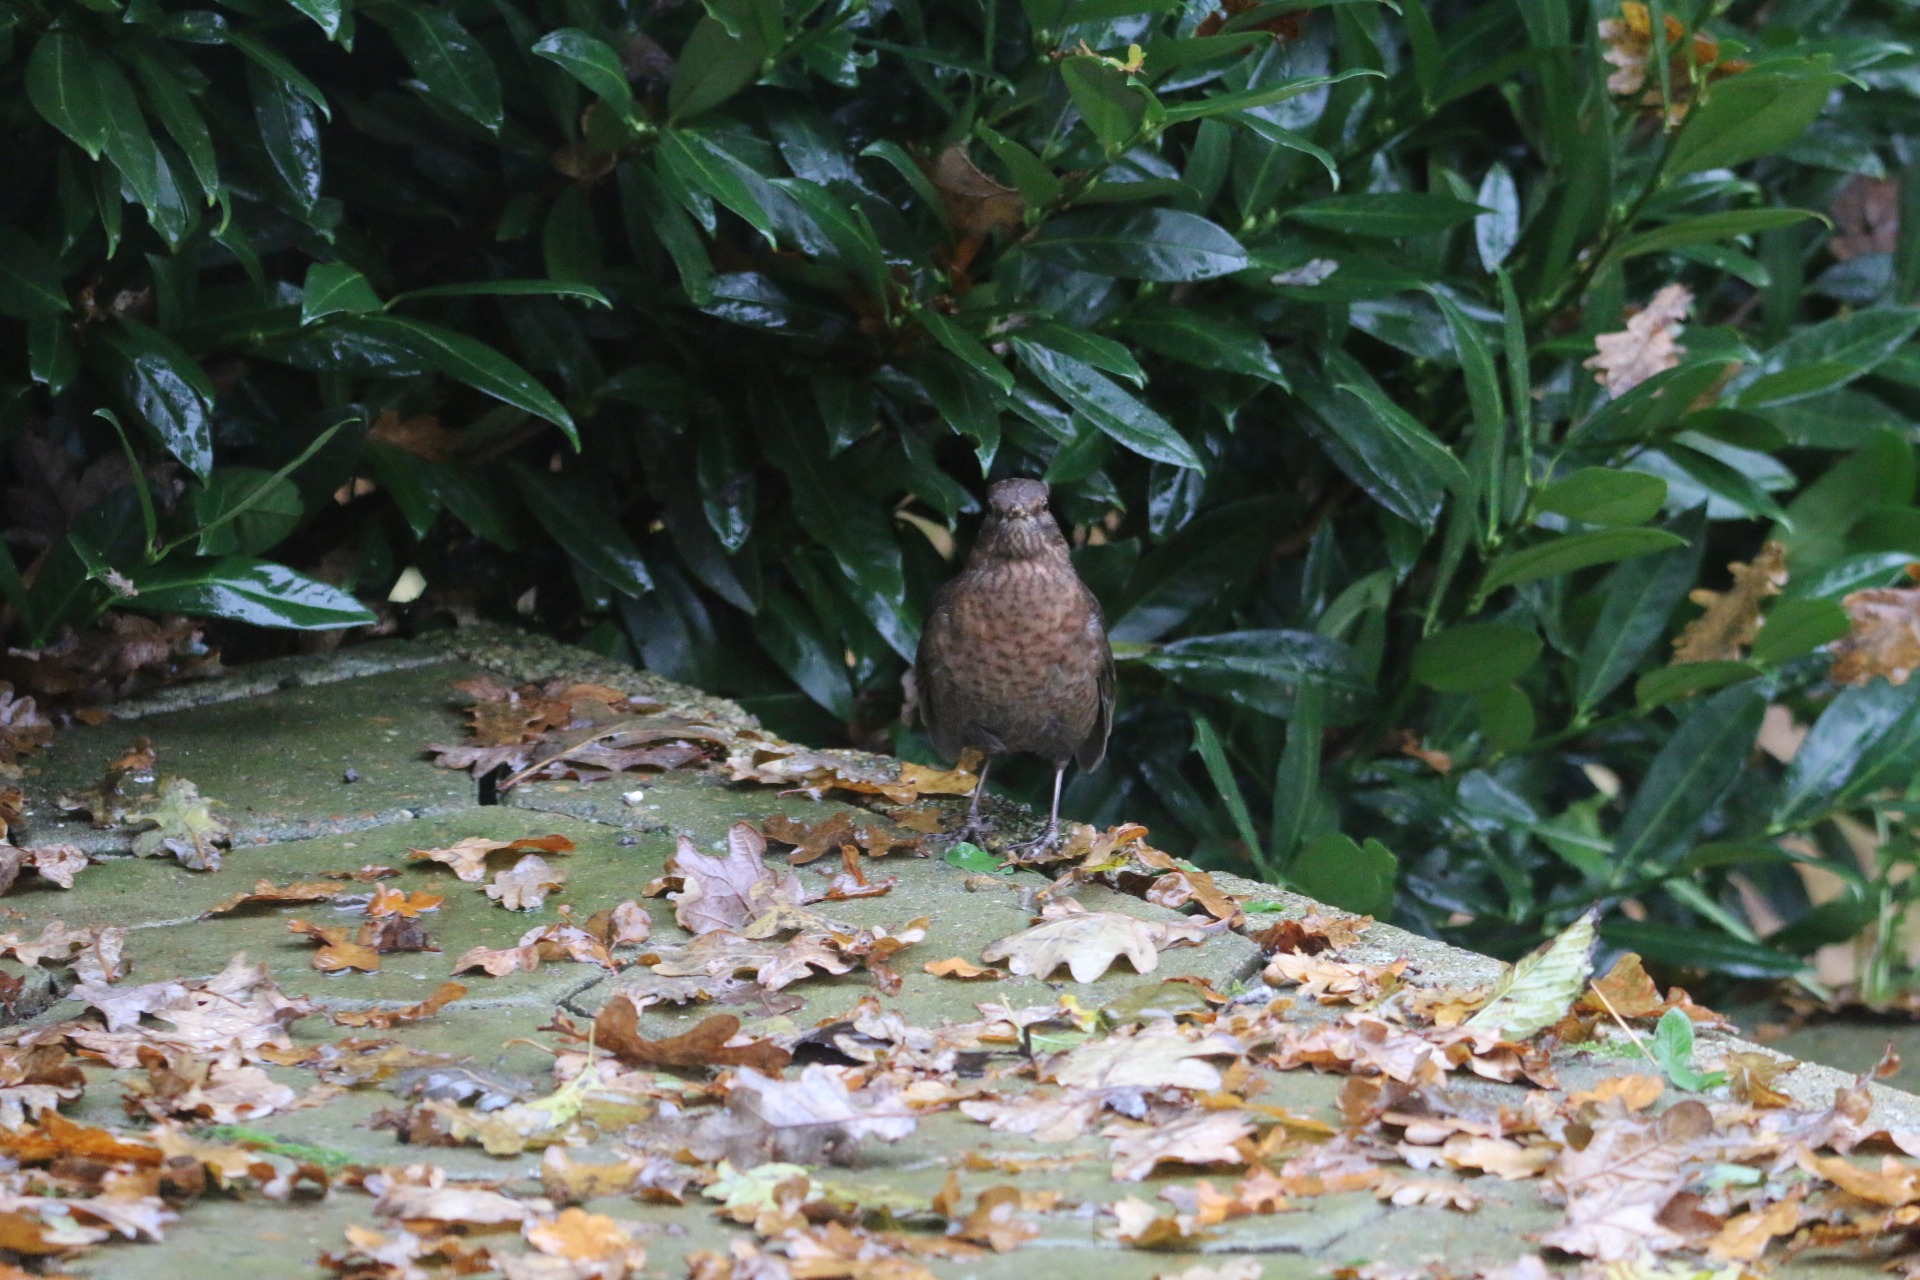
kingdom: Animalia
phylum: Chordata
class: Aves
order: Passeriformes
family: Turdidae
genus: Turdus
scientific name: Turdus merula
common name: Solsort
